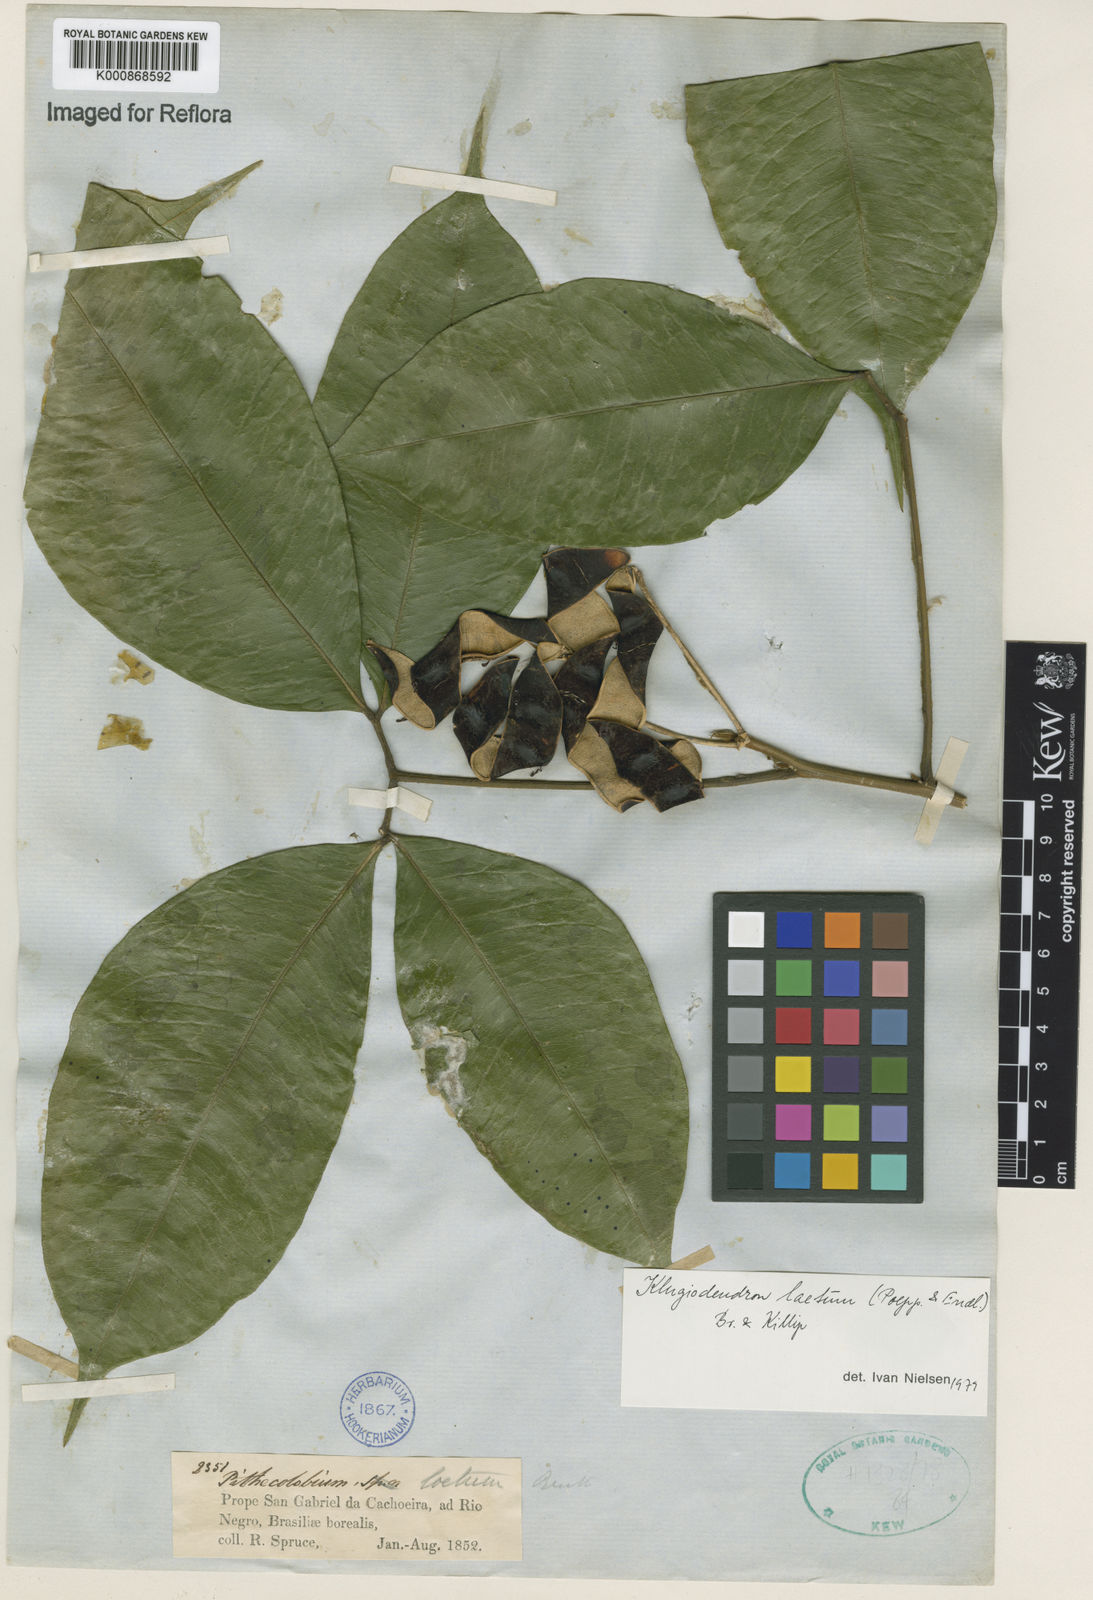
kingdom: Plantae
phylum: Tracheophyta
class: Magnoliopsida
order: Fabales
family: Fabaceae
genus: Jupunba
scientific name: Jupunba laeta
